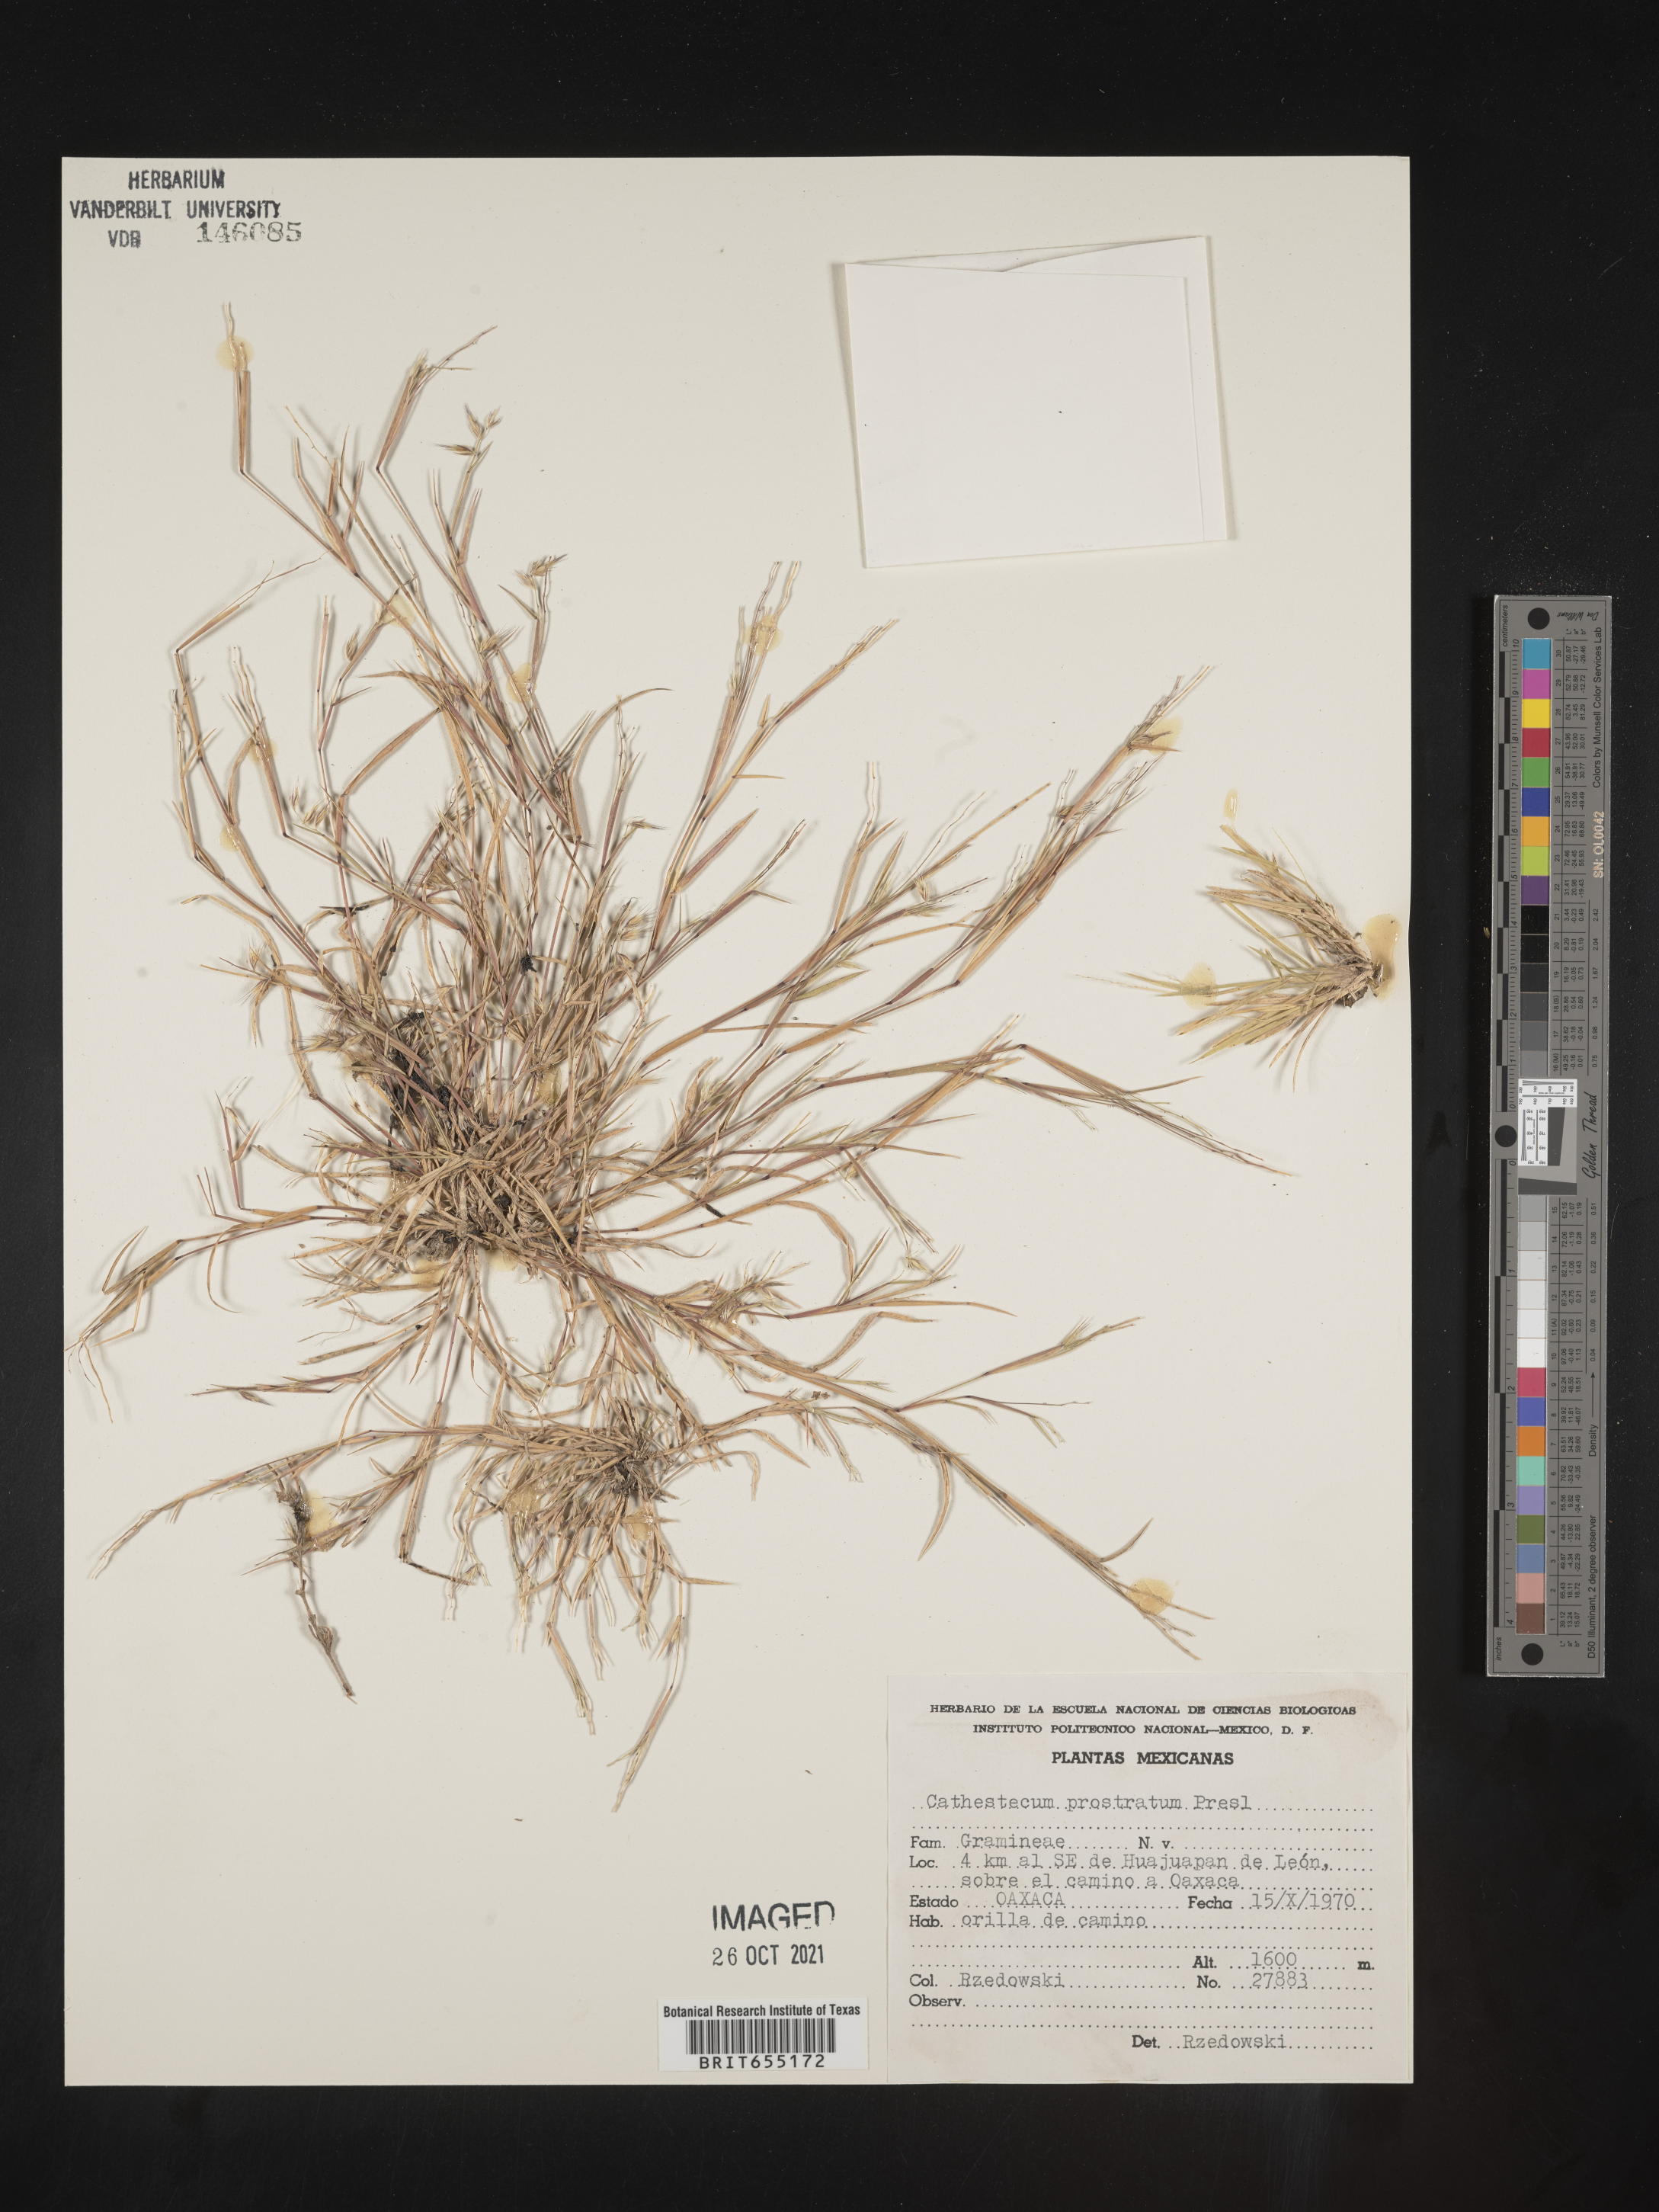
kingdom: Plantae
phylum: Tracheophyta
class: Liliopsida
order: Poales
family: Poaceae
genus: Bouteloua
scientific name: Bouteloua
